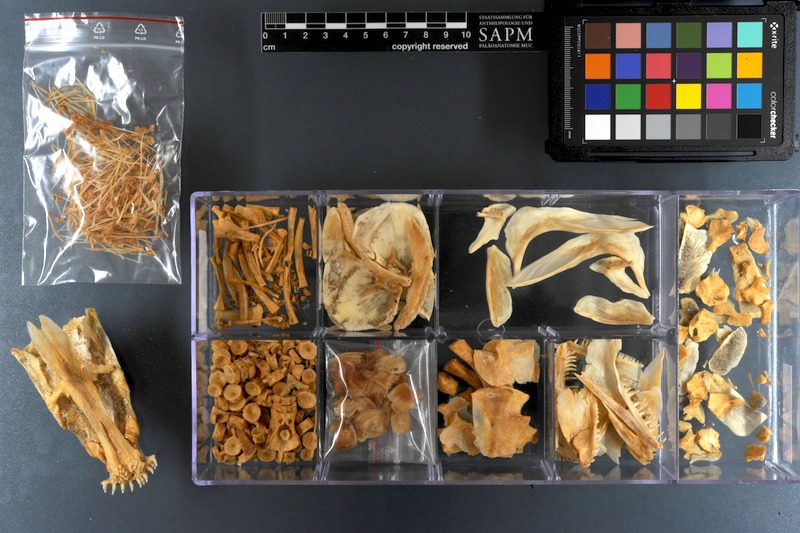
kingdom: Animalia
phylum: Chordata
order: Amiiformes
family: Amiidae
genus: Amia
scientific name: Amia calva
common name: Bowfin
